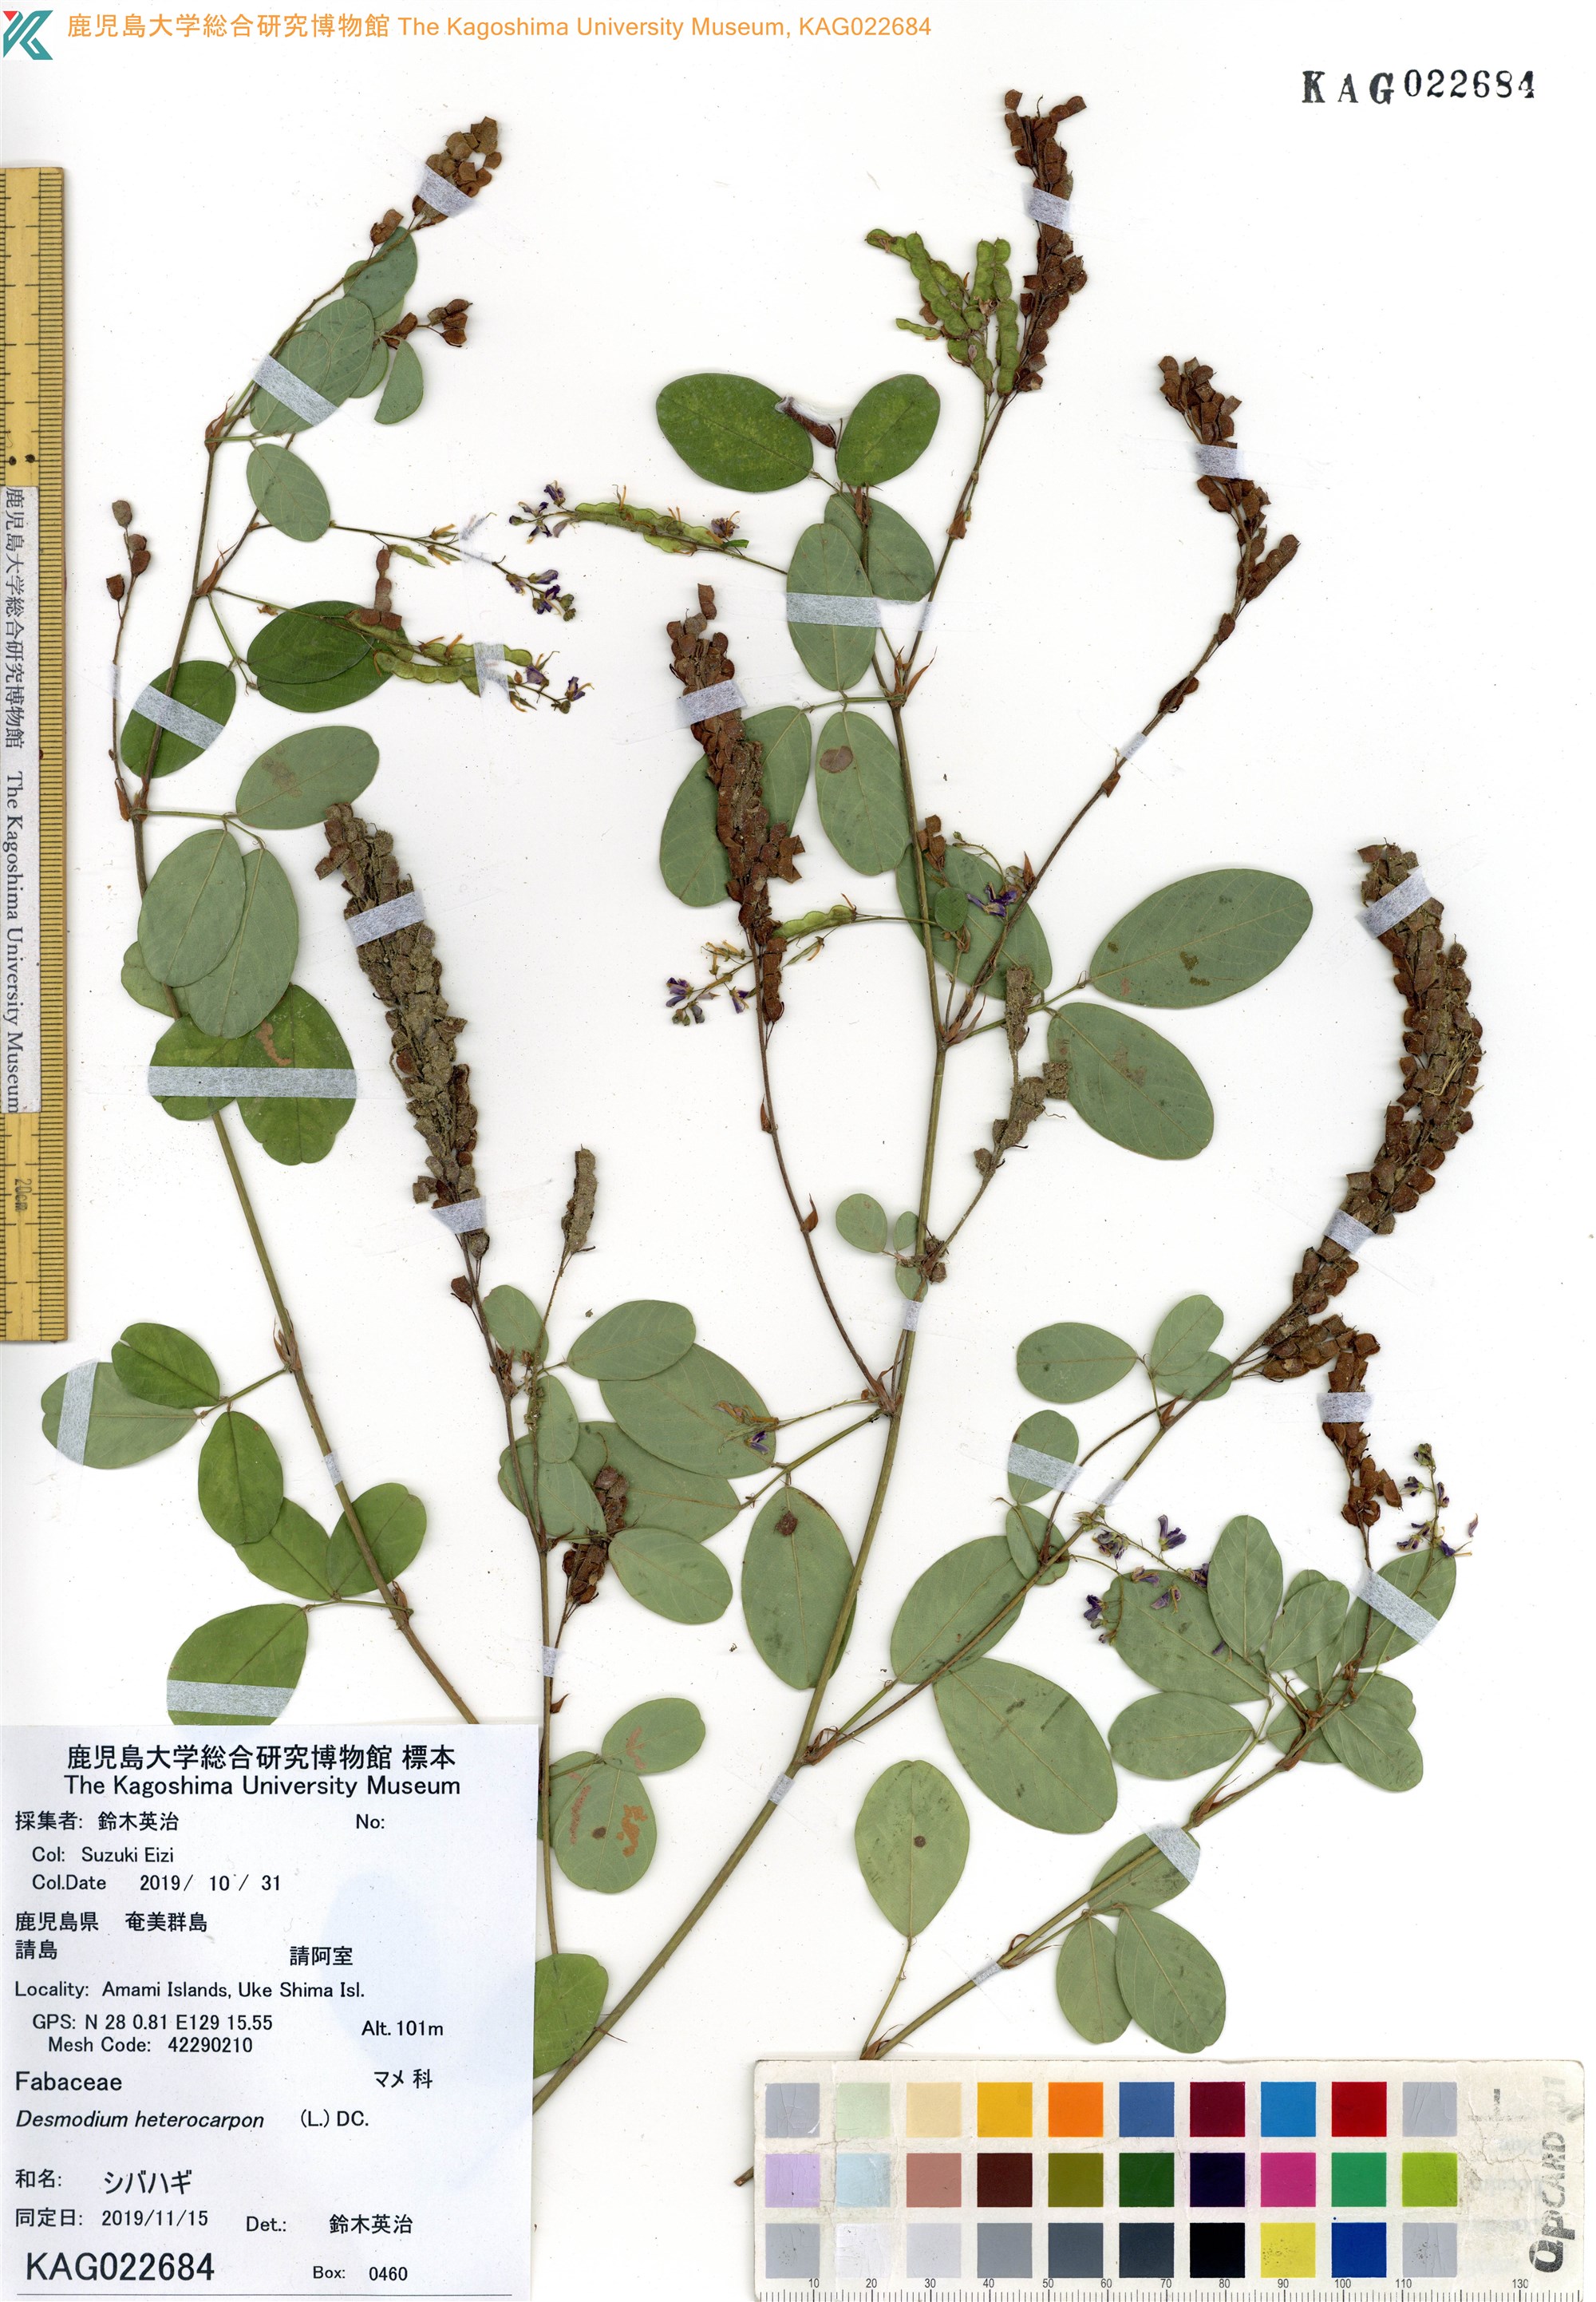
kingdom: Plantae
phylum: Tracheophyta
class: Magnoliopsida
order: Fabales
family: Fabaceae
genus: Grona
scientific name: Grona heterocarpos
